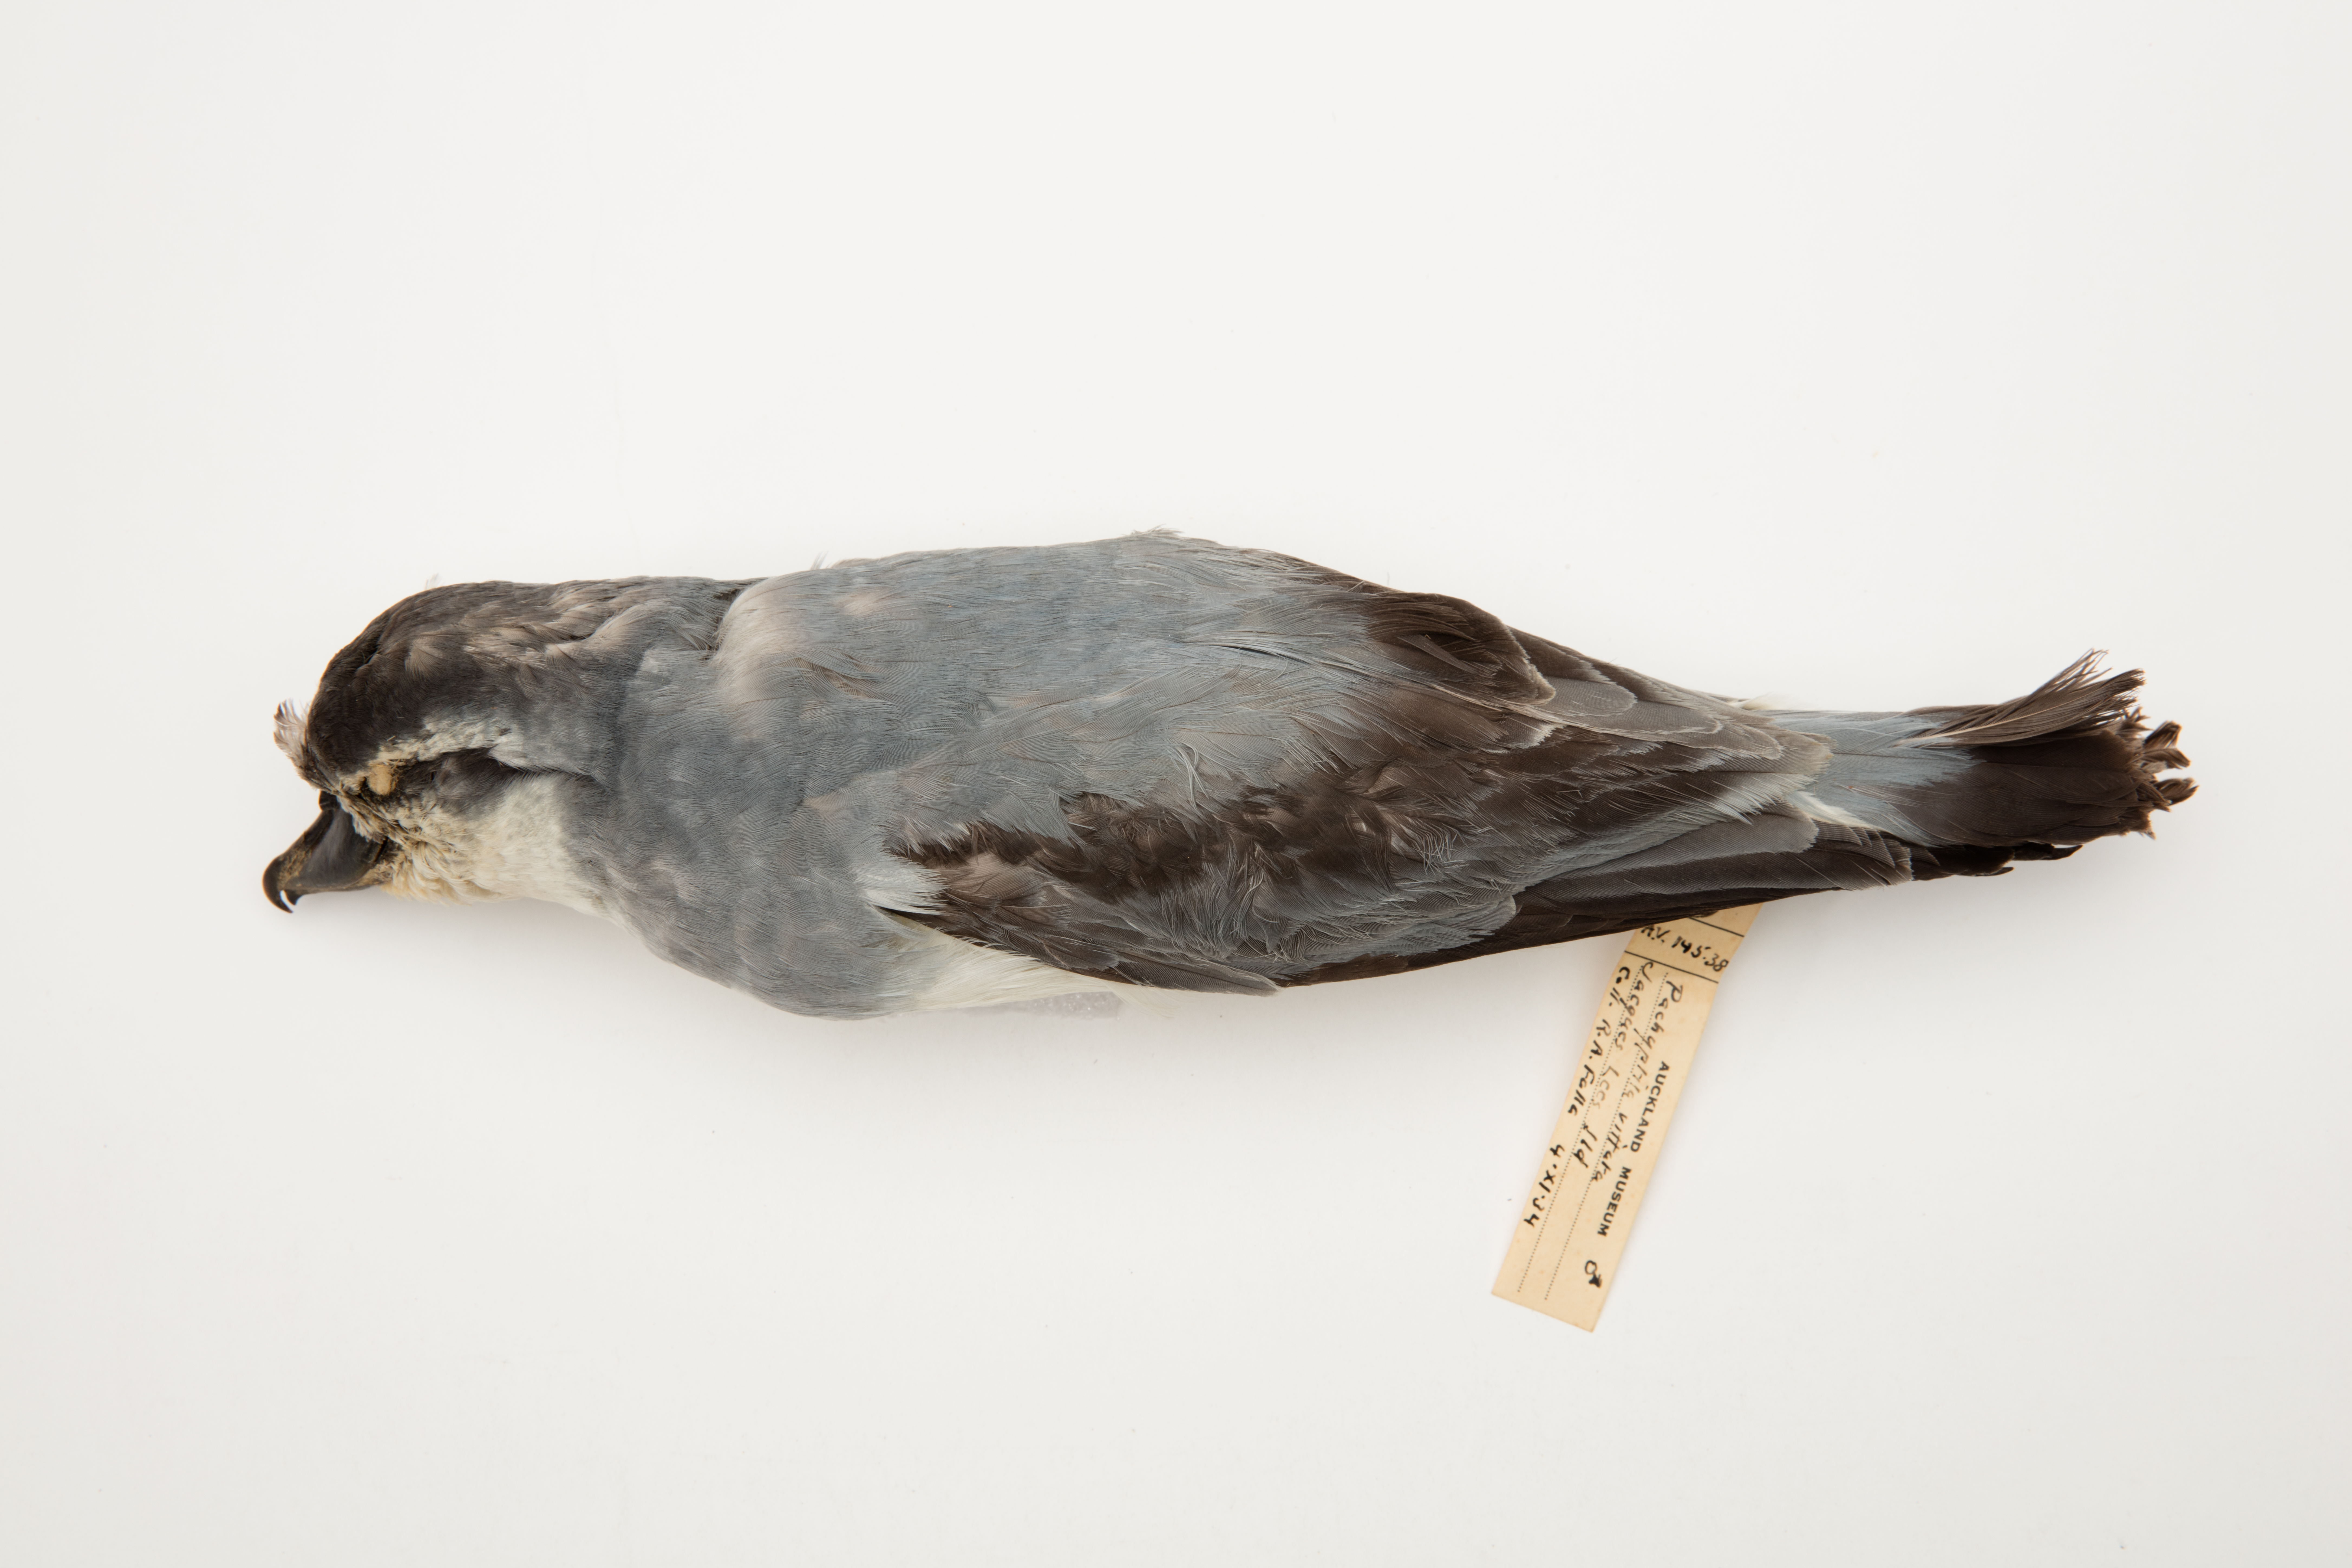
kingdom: Animalia
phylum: Chordata
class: Aves
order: Procellariiformes
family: Procellariidae
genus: Pachyptila
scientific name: Pachyptila vittata
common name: Broad-billed prion
